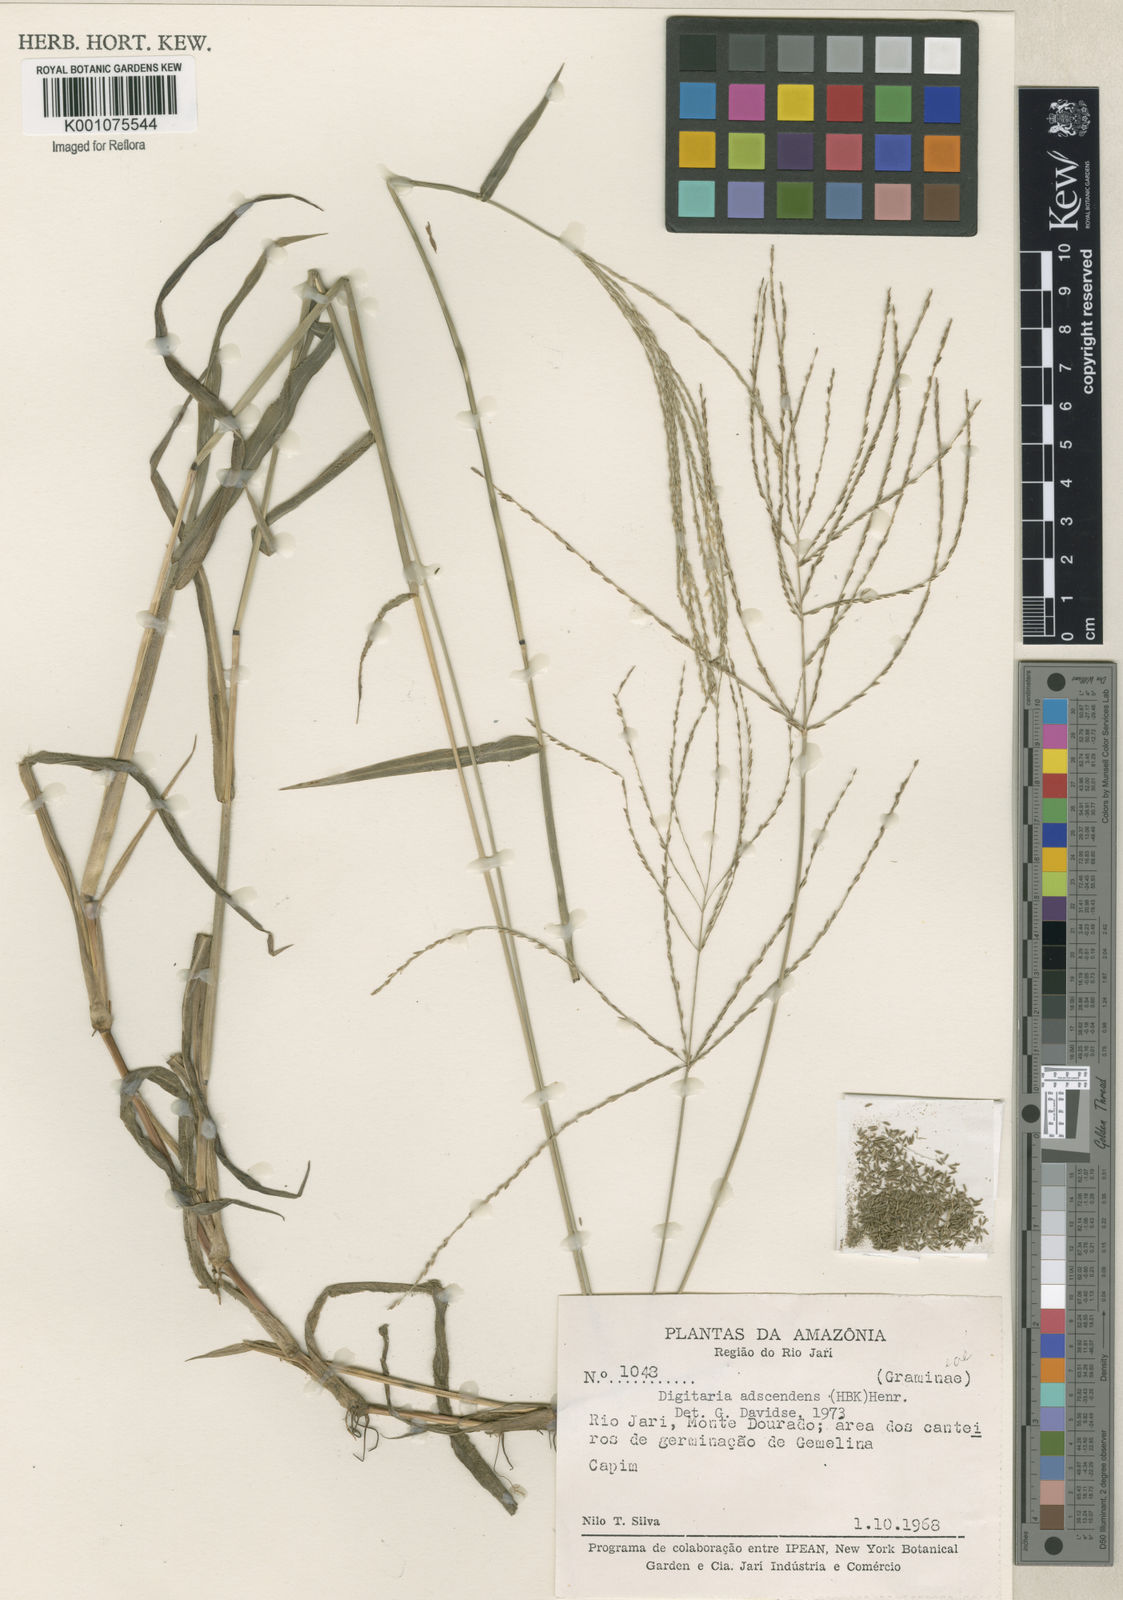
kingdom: Plantae
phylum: Tracheophyta
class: Liliopsida
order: Poales
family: Poaceae
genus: Digitaria
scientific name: Digitaria ciliaris
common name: Tropical finger-grass
